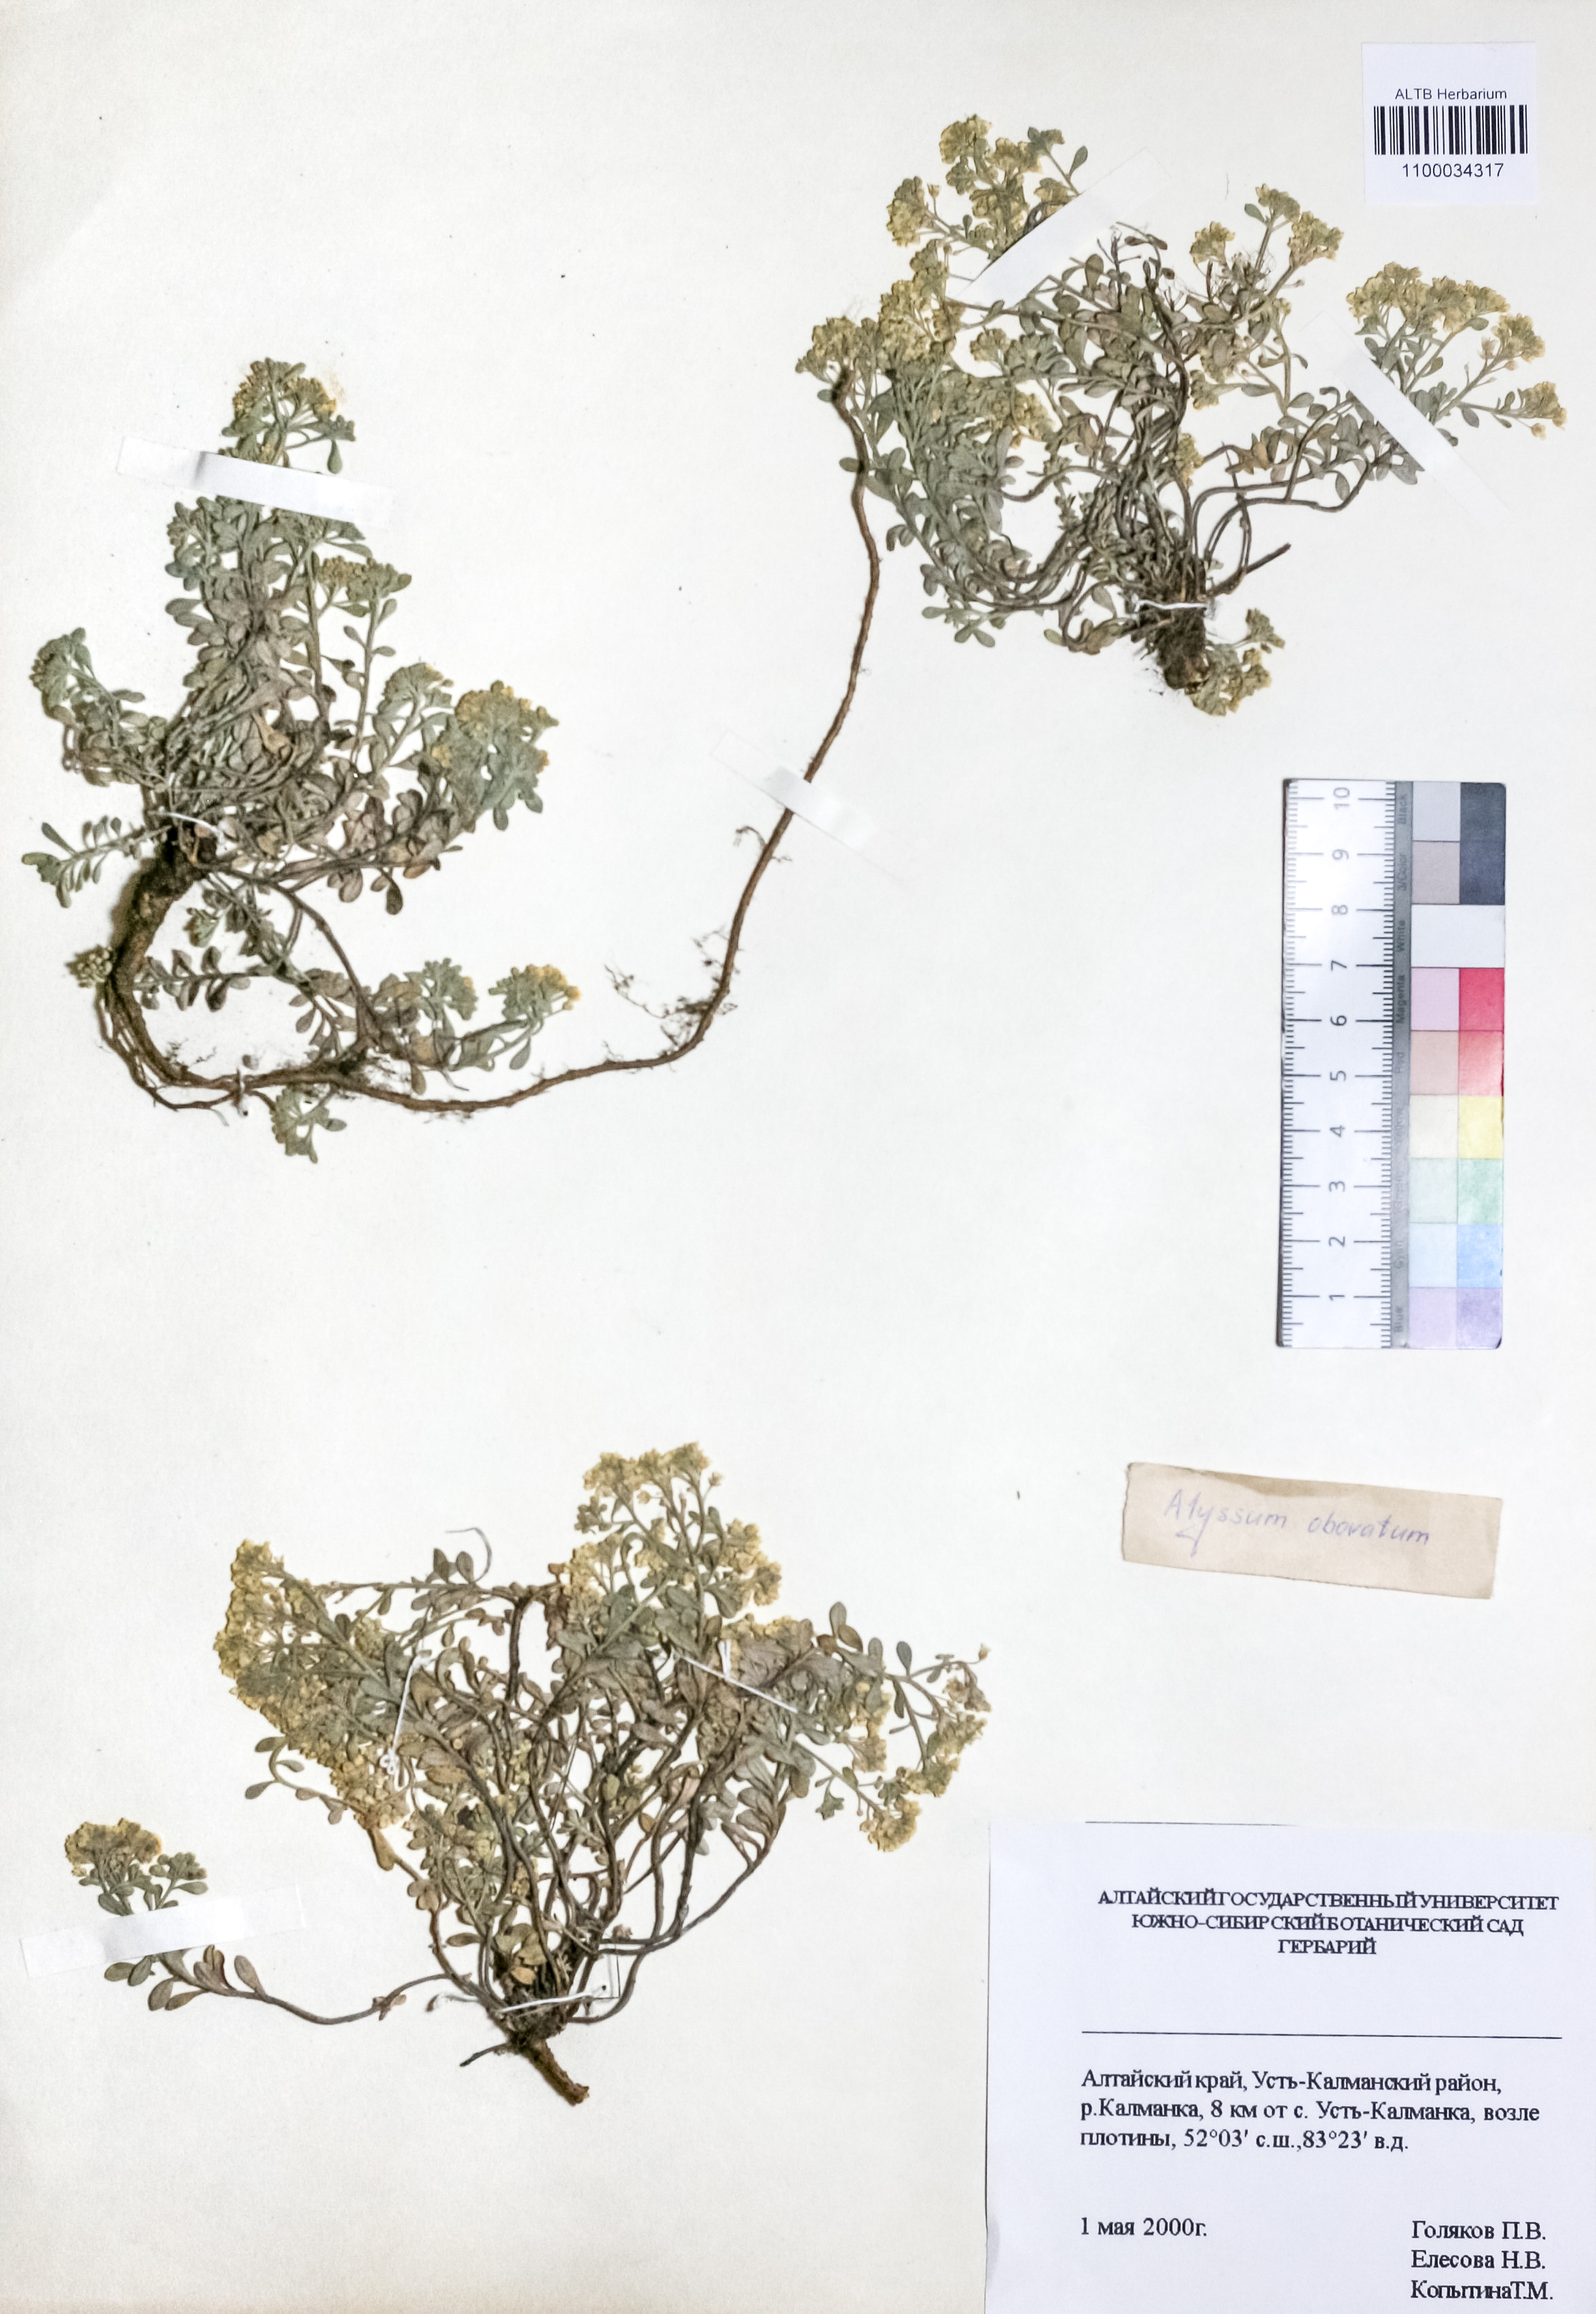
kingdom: Plantae
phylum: Tracheophyta
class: Magnoliopsida
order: Brassicales
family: Brassicaceae
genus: Odontarrhena
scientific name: Odontarrhena obovata
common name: American alyssum
